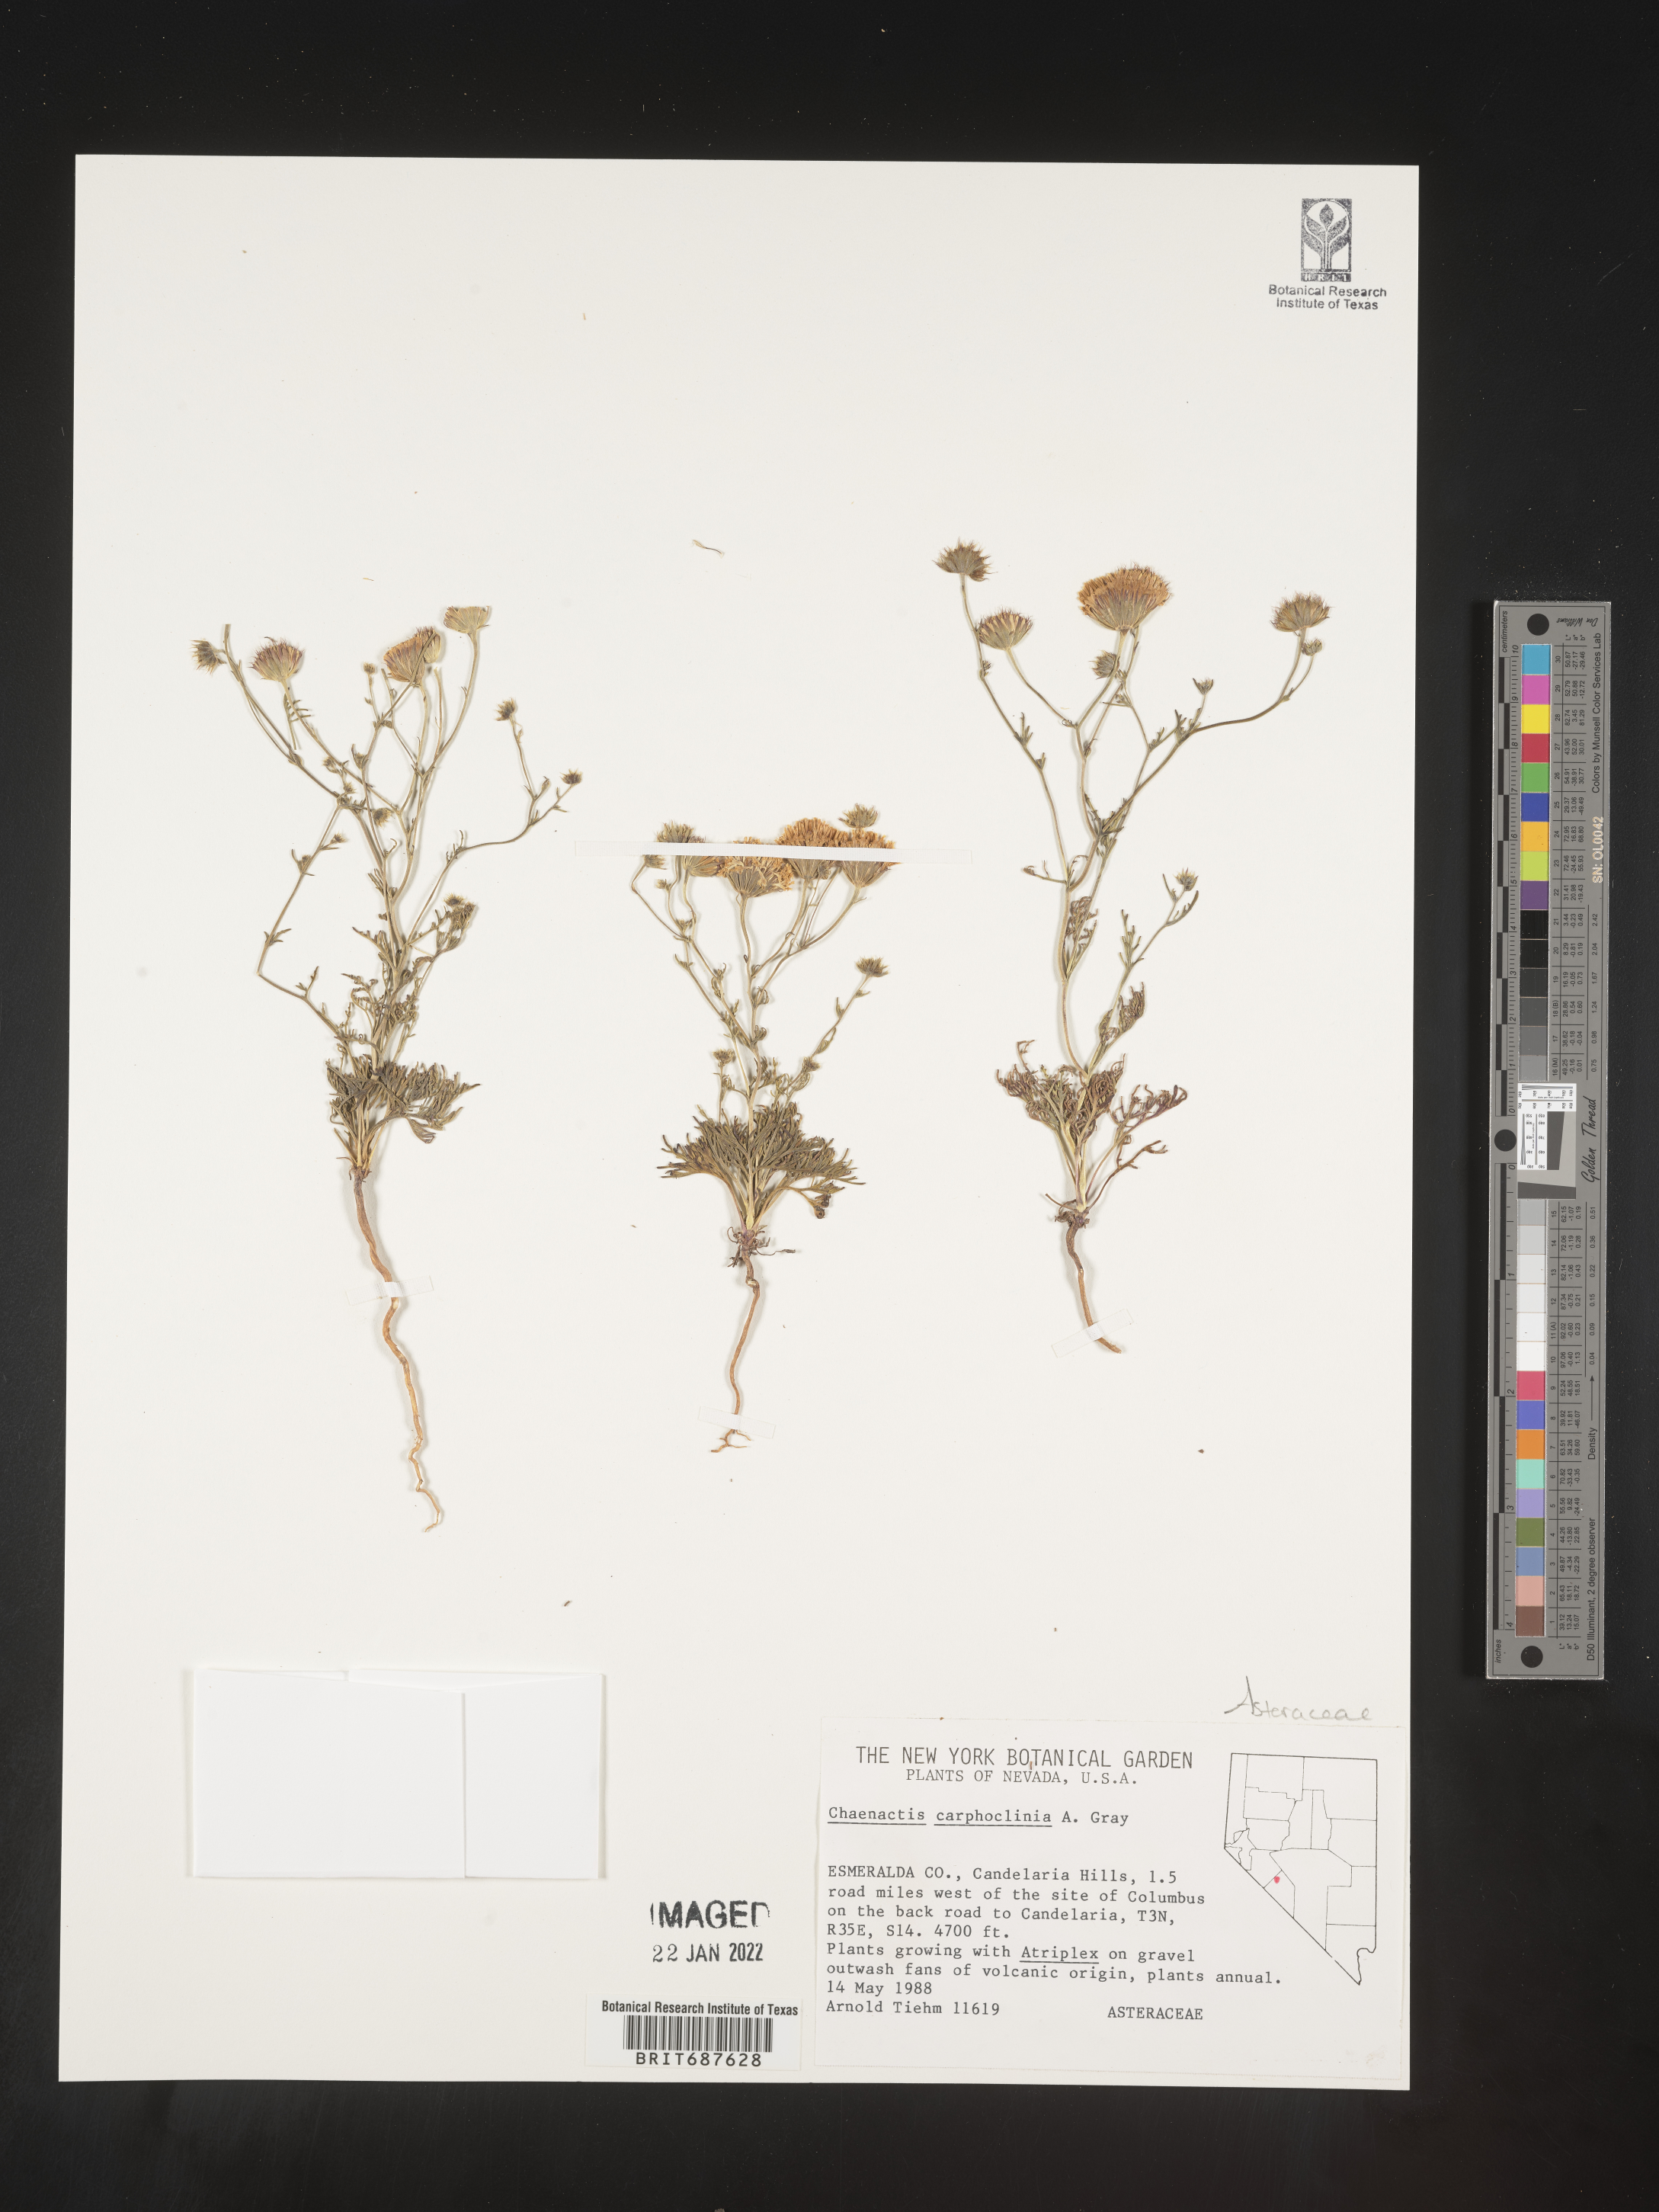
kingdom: Plantae
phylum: Tracheophyta
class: Magnoliopsida
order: Asterales
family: Asteraceae
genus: Chaenactis
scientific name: Chaenactis carphoclinia
